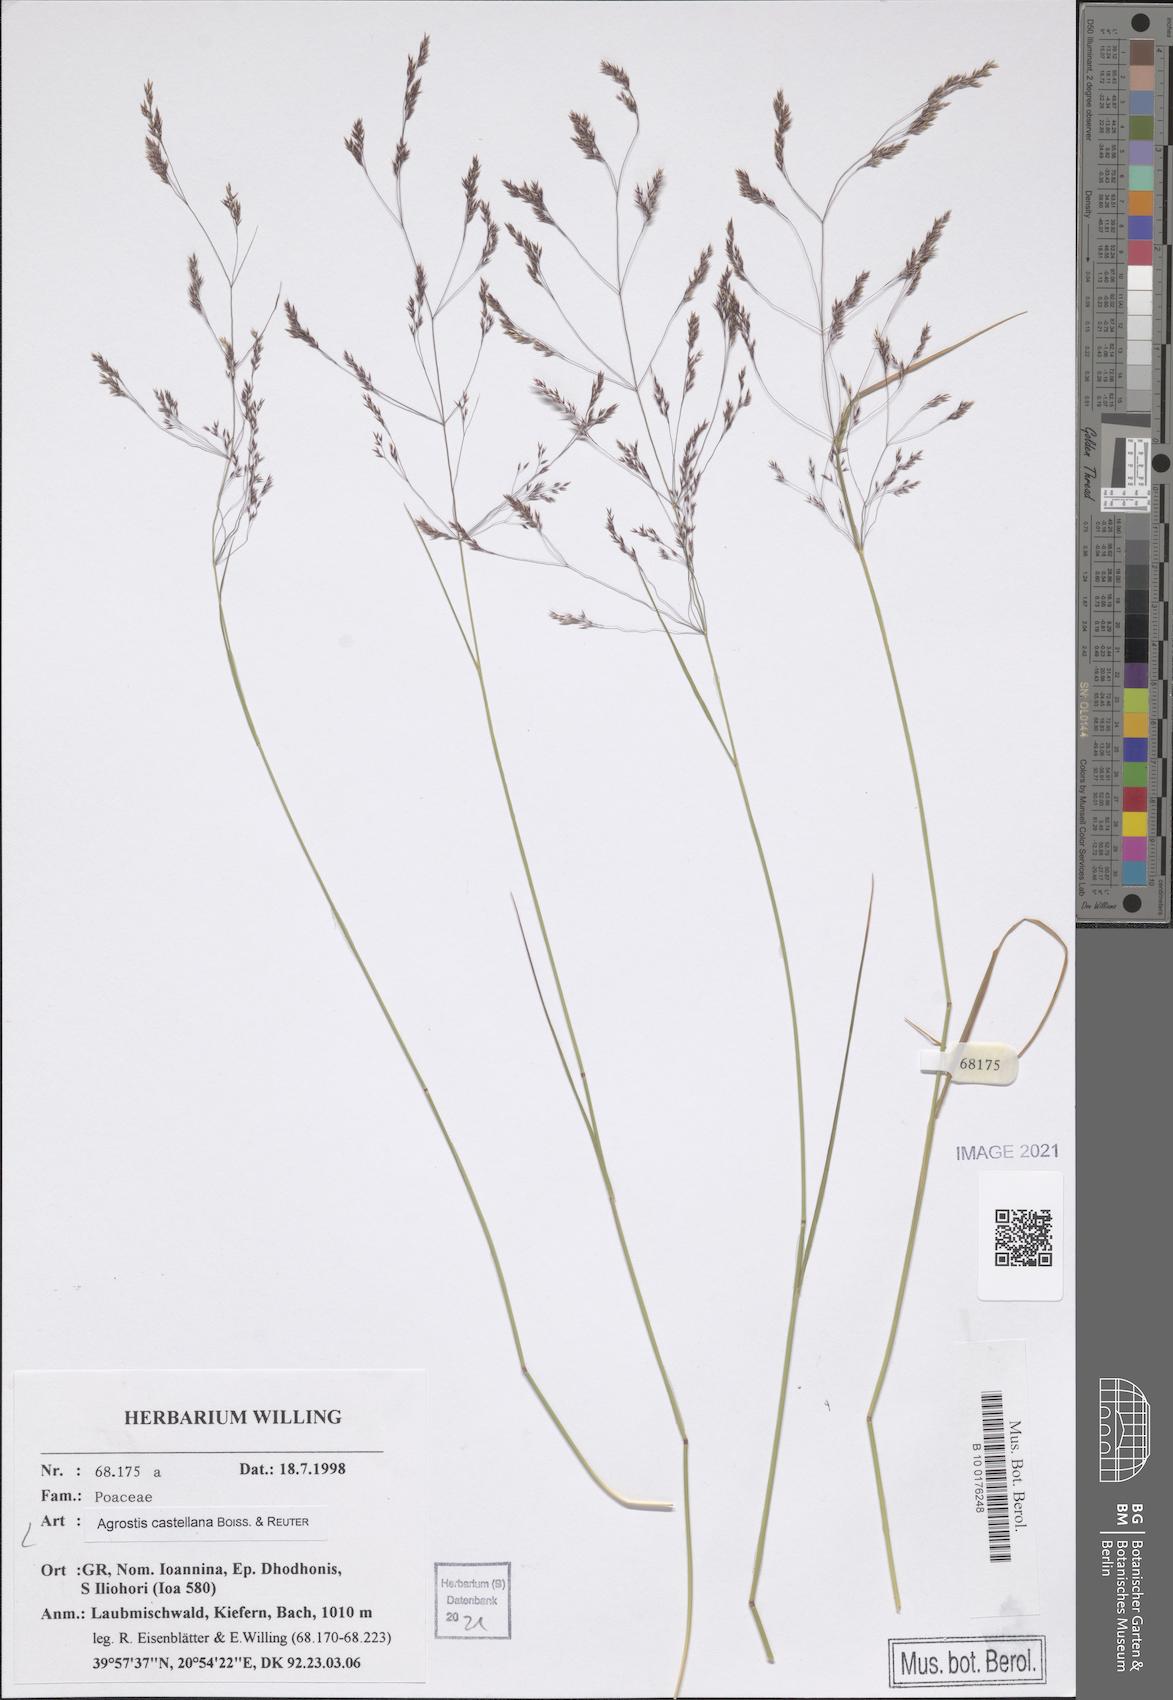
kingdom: Plantae
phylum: Tracheophyta
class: Liliopsida
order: Poales
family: Poaceae
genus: Agrostis
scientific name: Agrostis castellana
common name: Highland bent
